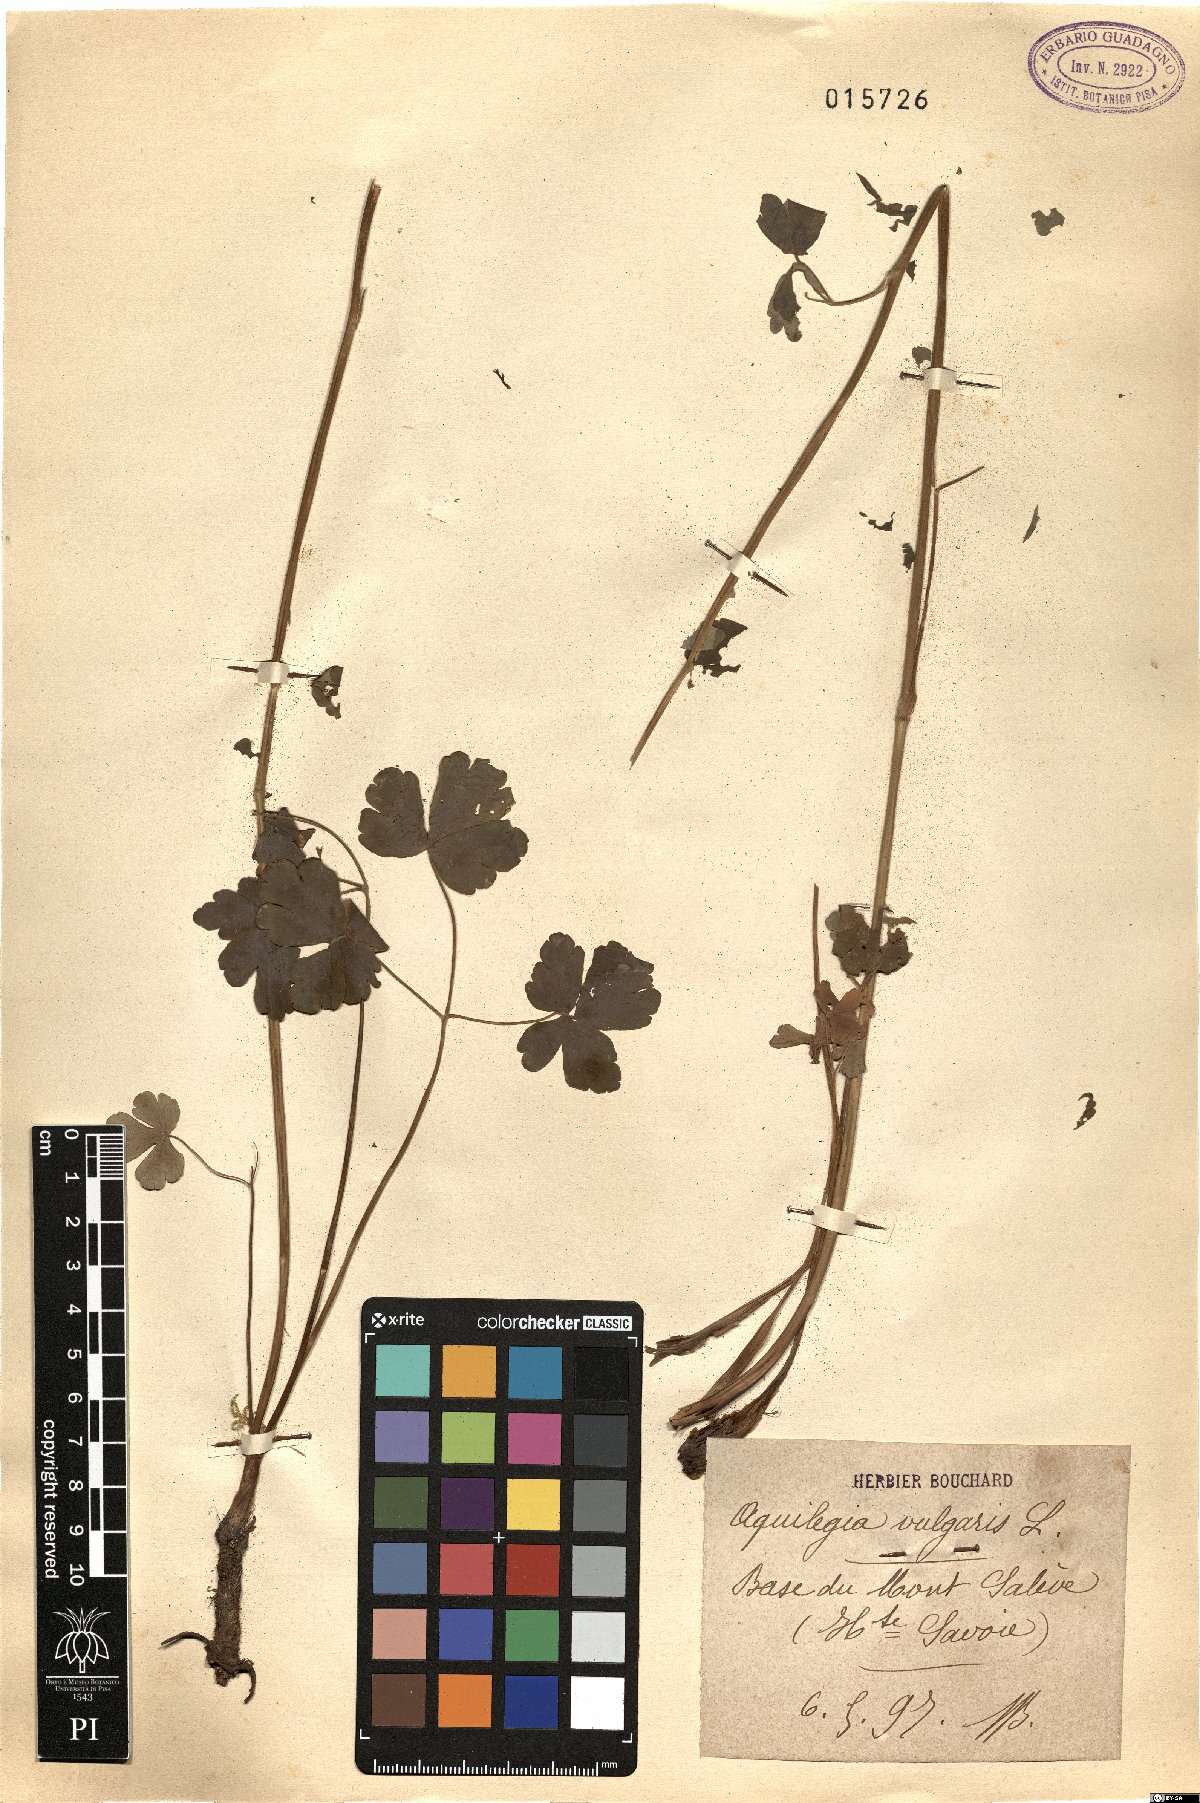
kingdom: Plantae
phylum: Tracheophyta
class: Magnoliopsida
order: Ranunculales
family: Ranunculaceae
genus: Aquilegia
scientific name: Aquilegia vulgaris
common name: Columbine
